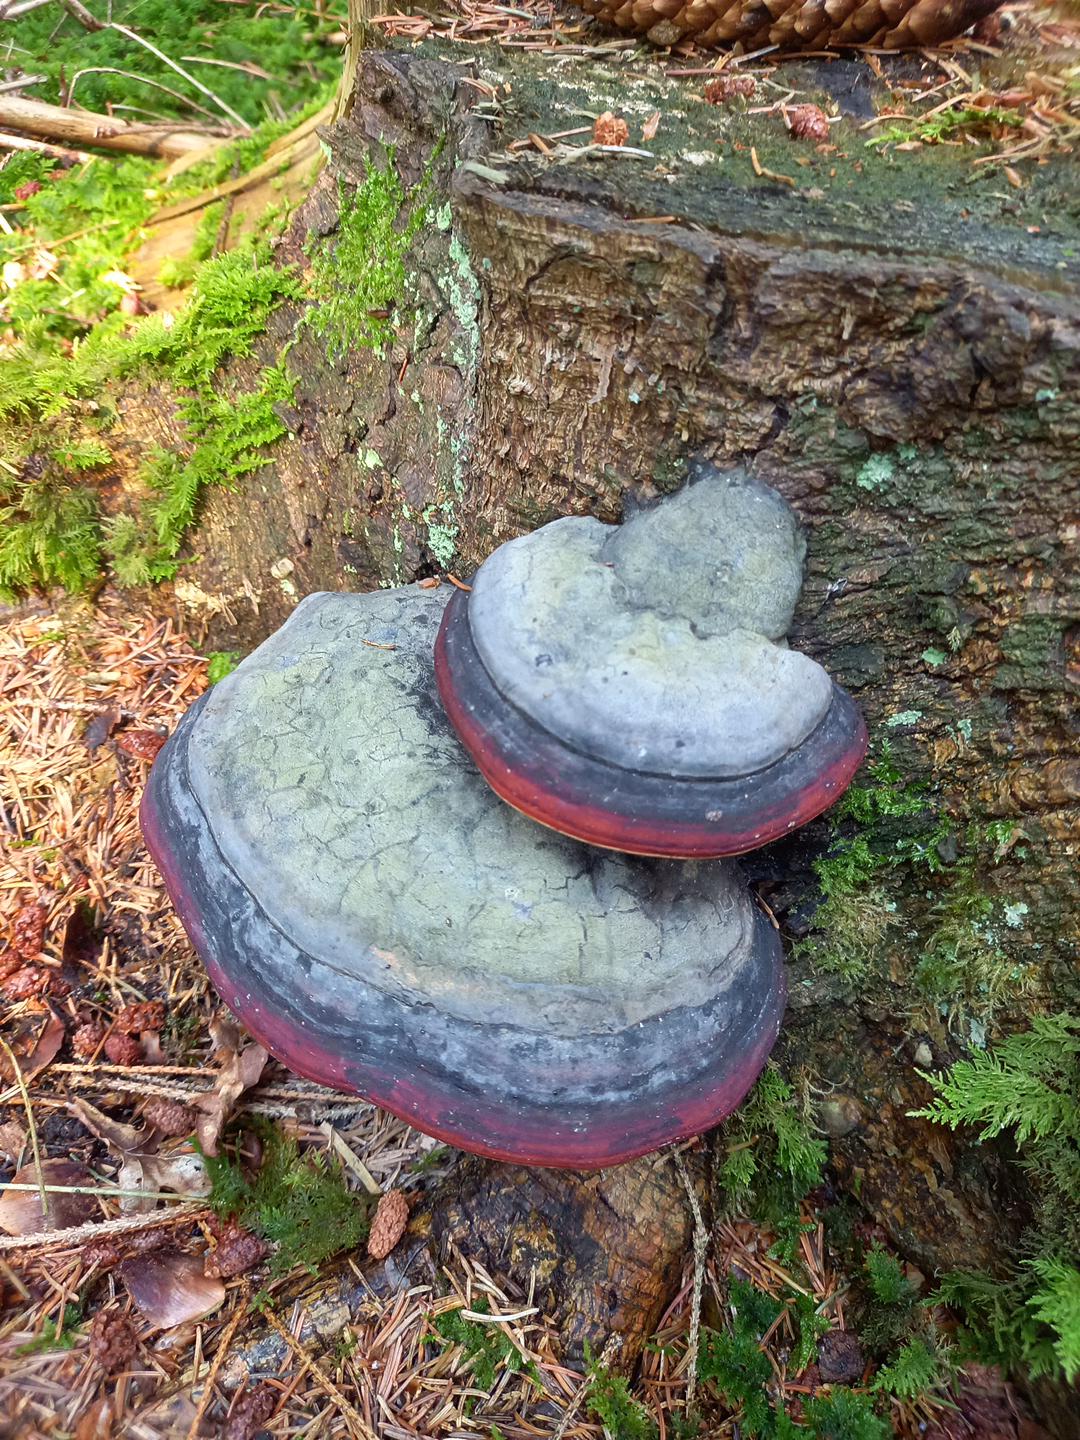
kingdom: Fungi
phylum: Basidiomycota
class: Agaricomycetes
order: Polyporales
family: Fomitopsidaceae
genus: Fomitopsis
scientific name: Fomitopsis pinicola
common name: randbæltet hovporesvamp
